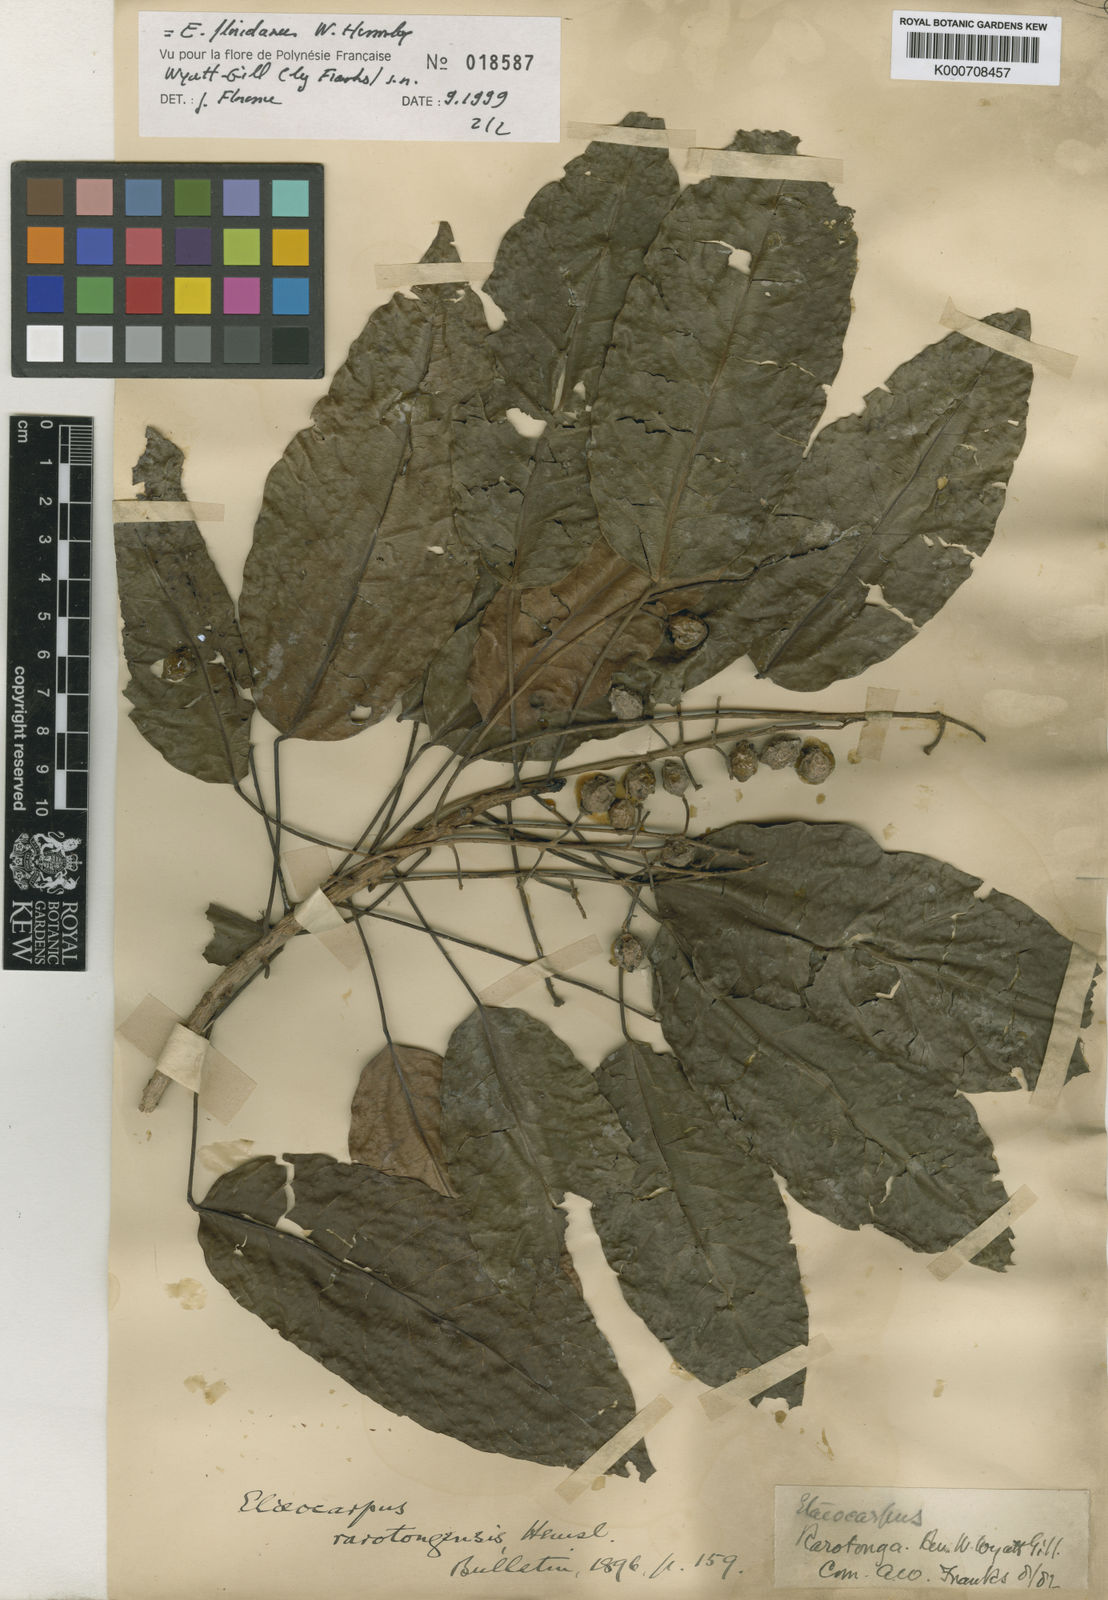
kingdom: Plantae
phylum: Tracheophyta
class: Magnoliopsida
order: Oxalidales
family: Elaeocarpaceae
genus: Elaeocarpus
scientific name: Elaeocarpus floridanus
